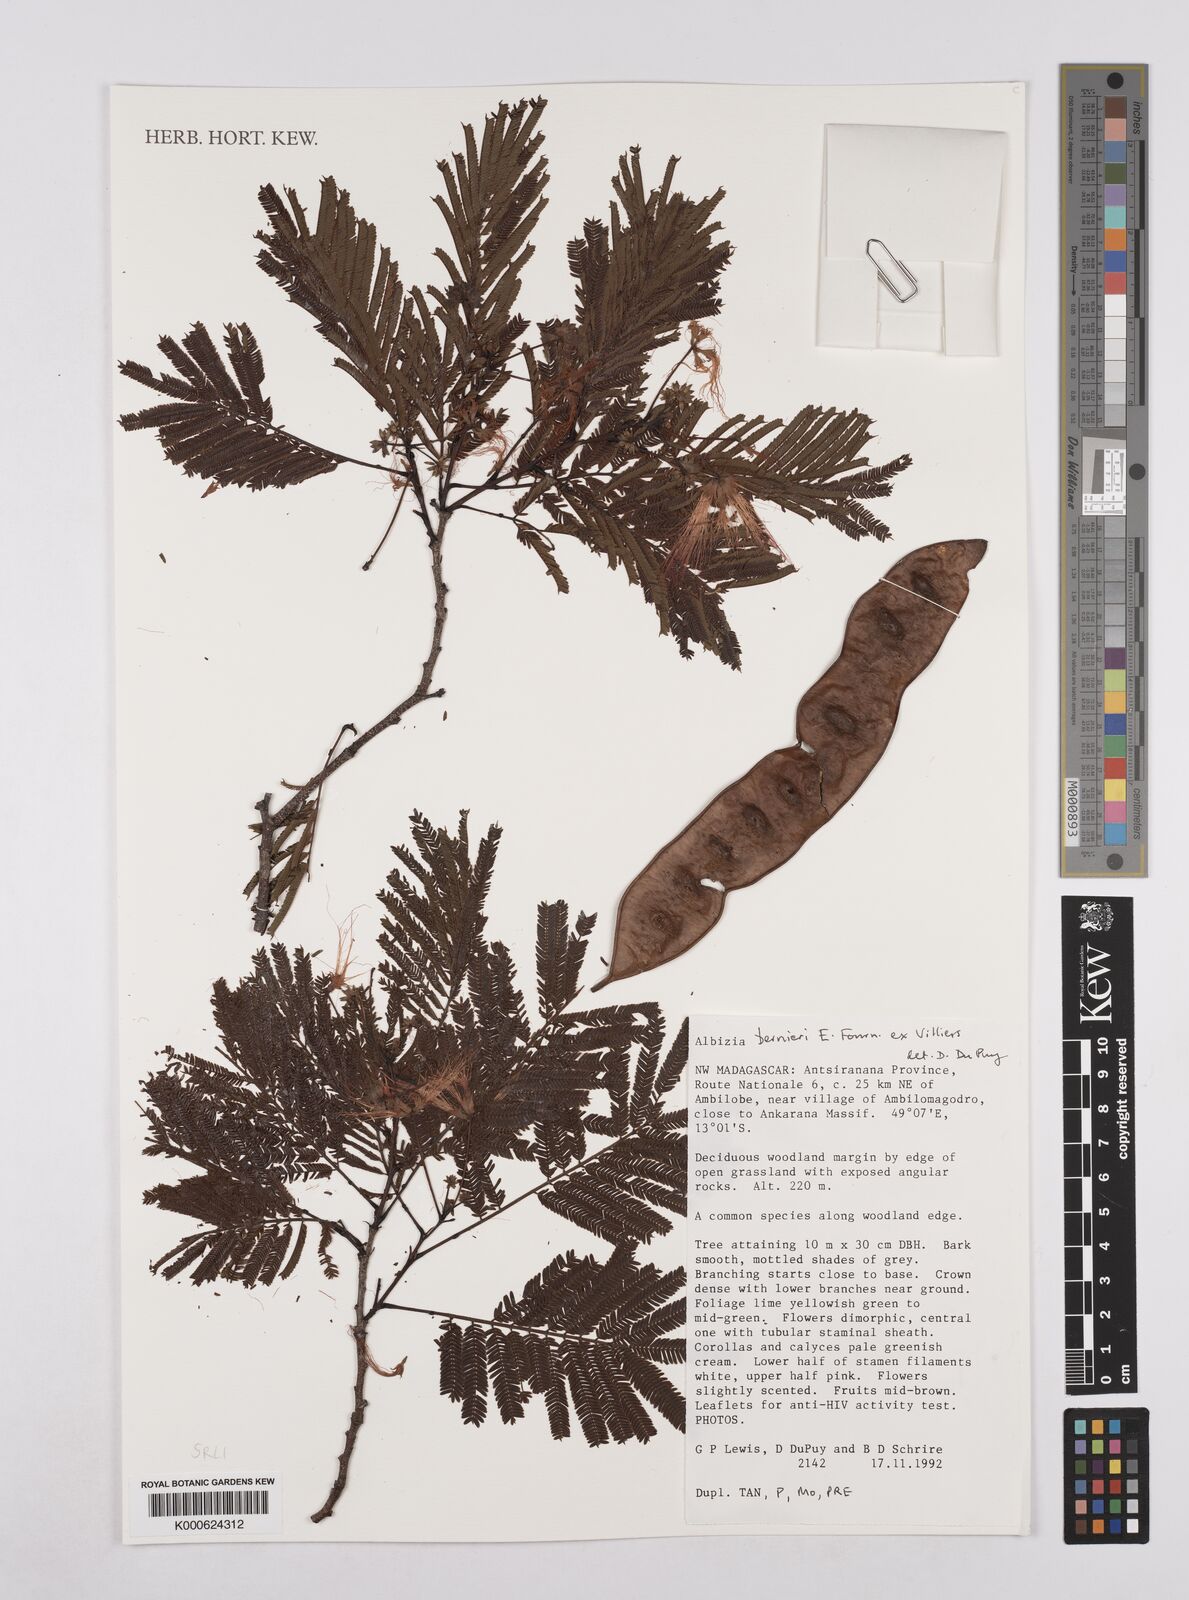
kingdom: Plantae
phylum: Tracheophyta
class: Magnoliopsida
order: Fabales
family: Fabaceae
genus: Albizia
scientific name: Albizia bernieri
